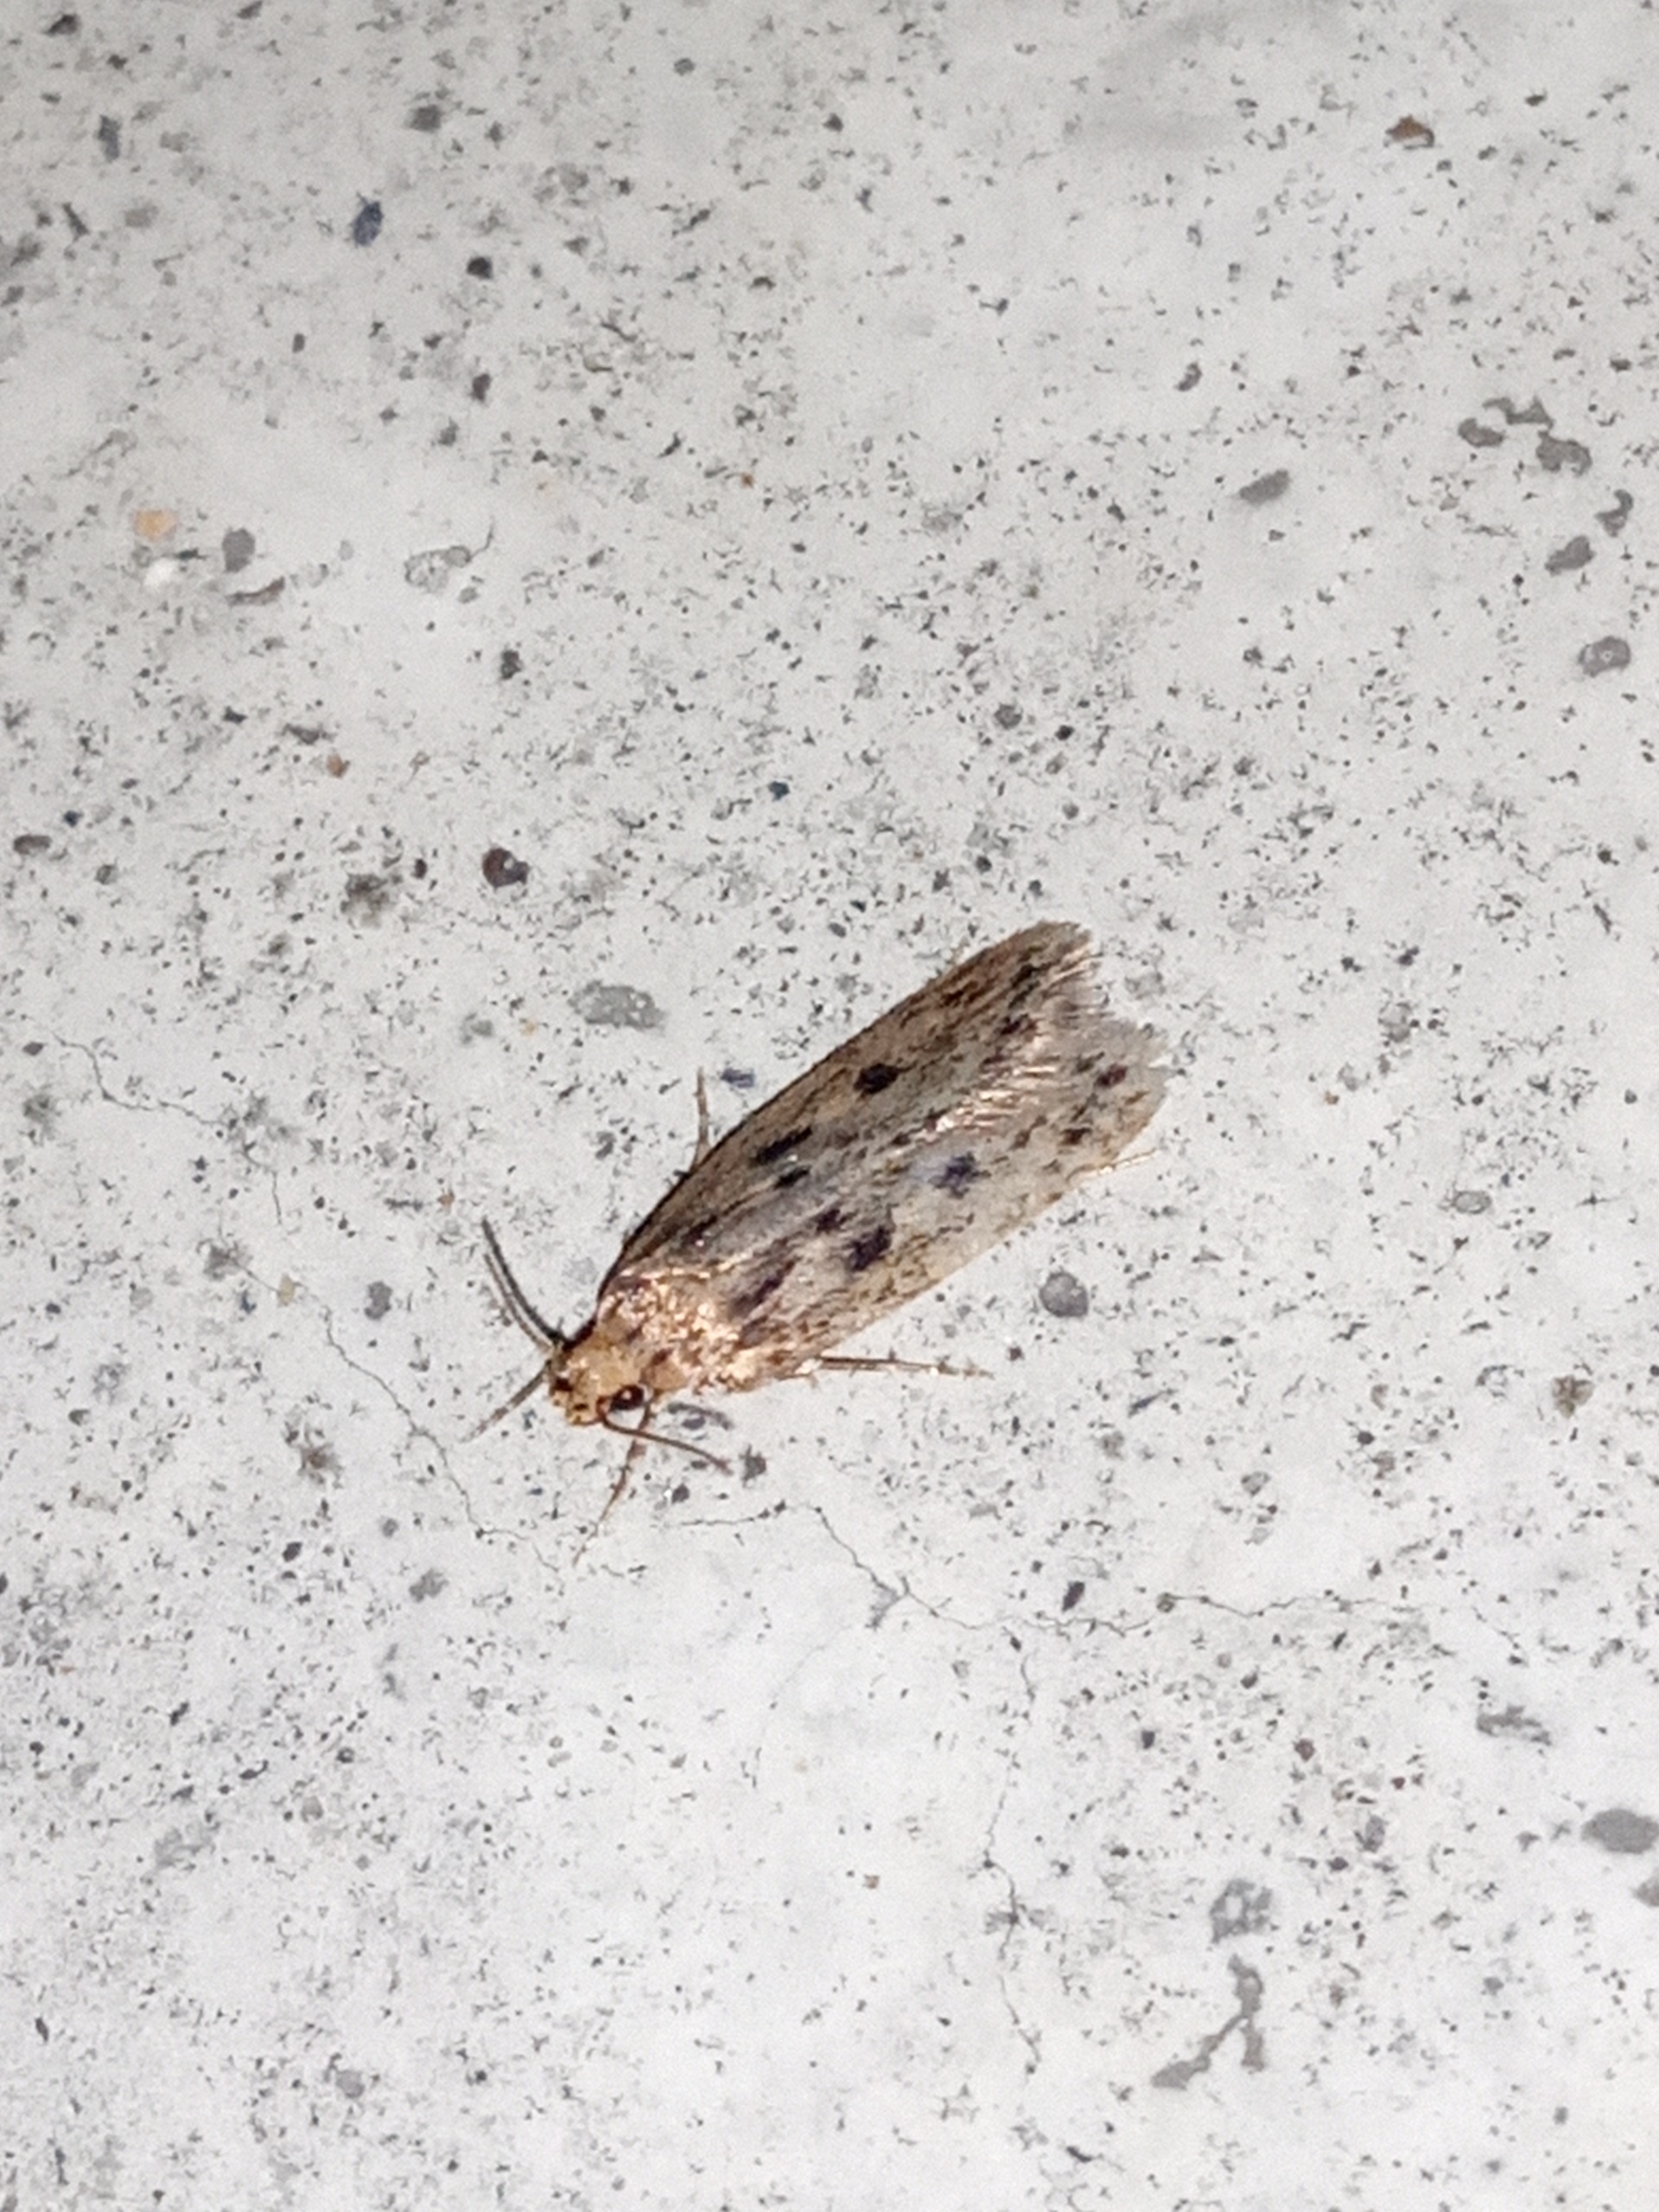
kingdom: Animalia
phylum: Arthropoda
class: Insecta
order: Lepidoptera
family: Oecophoridae
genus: Hofmannophila
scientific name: Hofmannophila pseudospretella
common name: Frømøl
